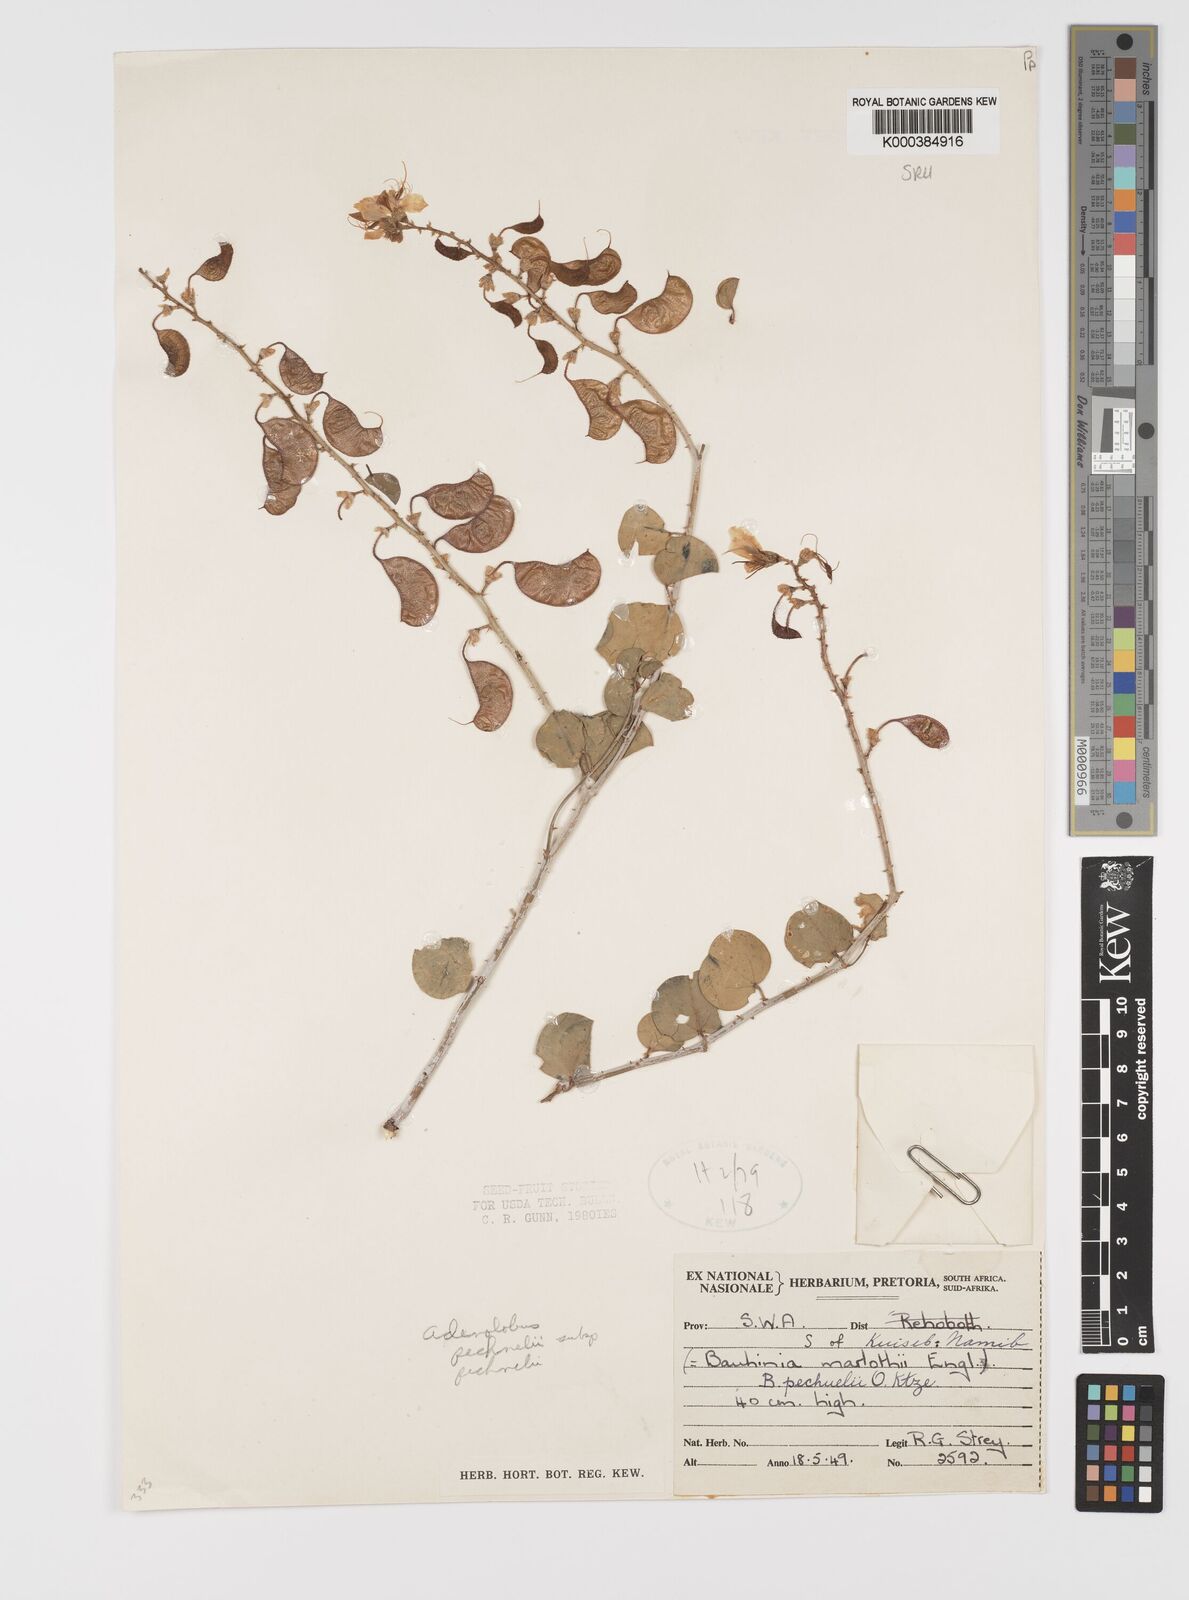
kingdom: Plantae
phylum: Tracheophyta
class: Magnoliopsida
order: Fabales
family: Fabaceae
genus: Bauhinia
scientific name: Bauhinia
